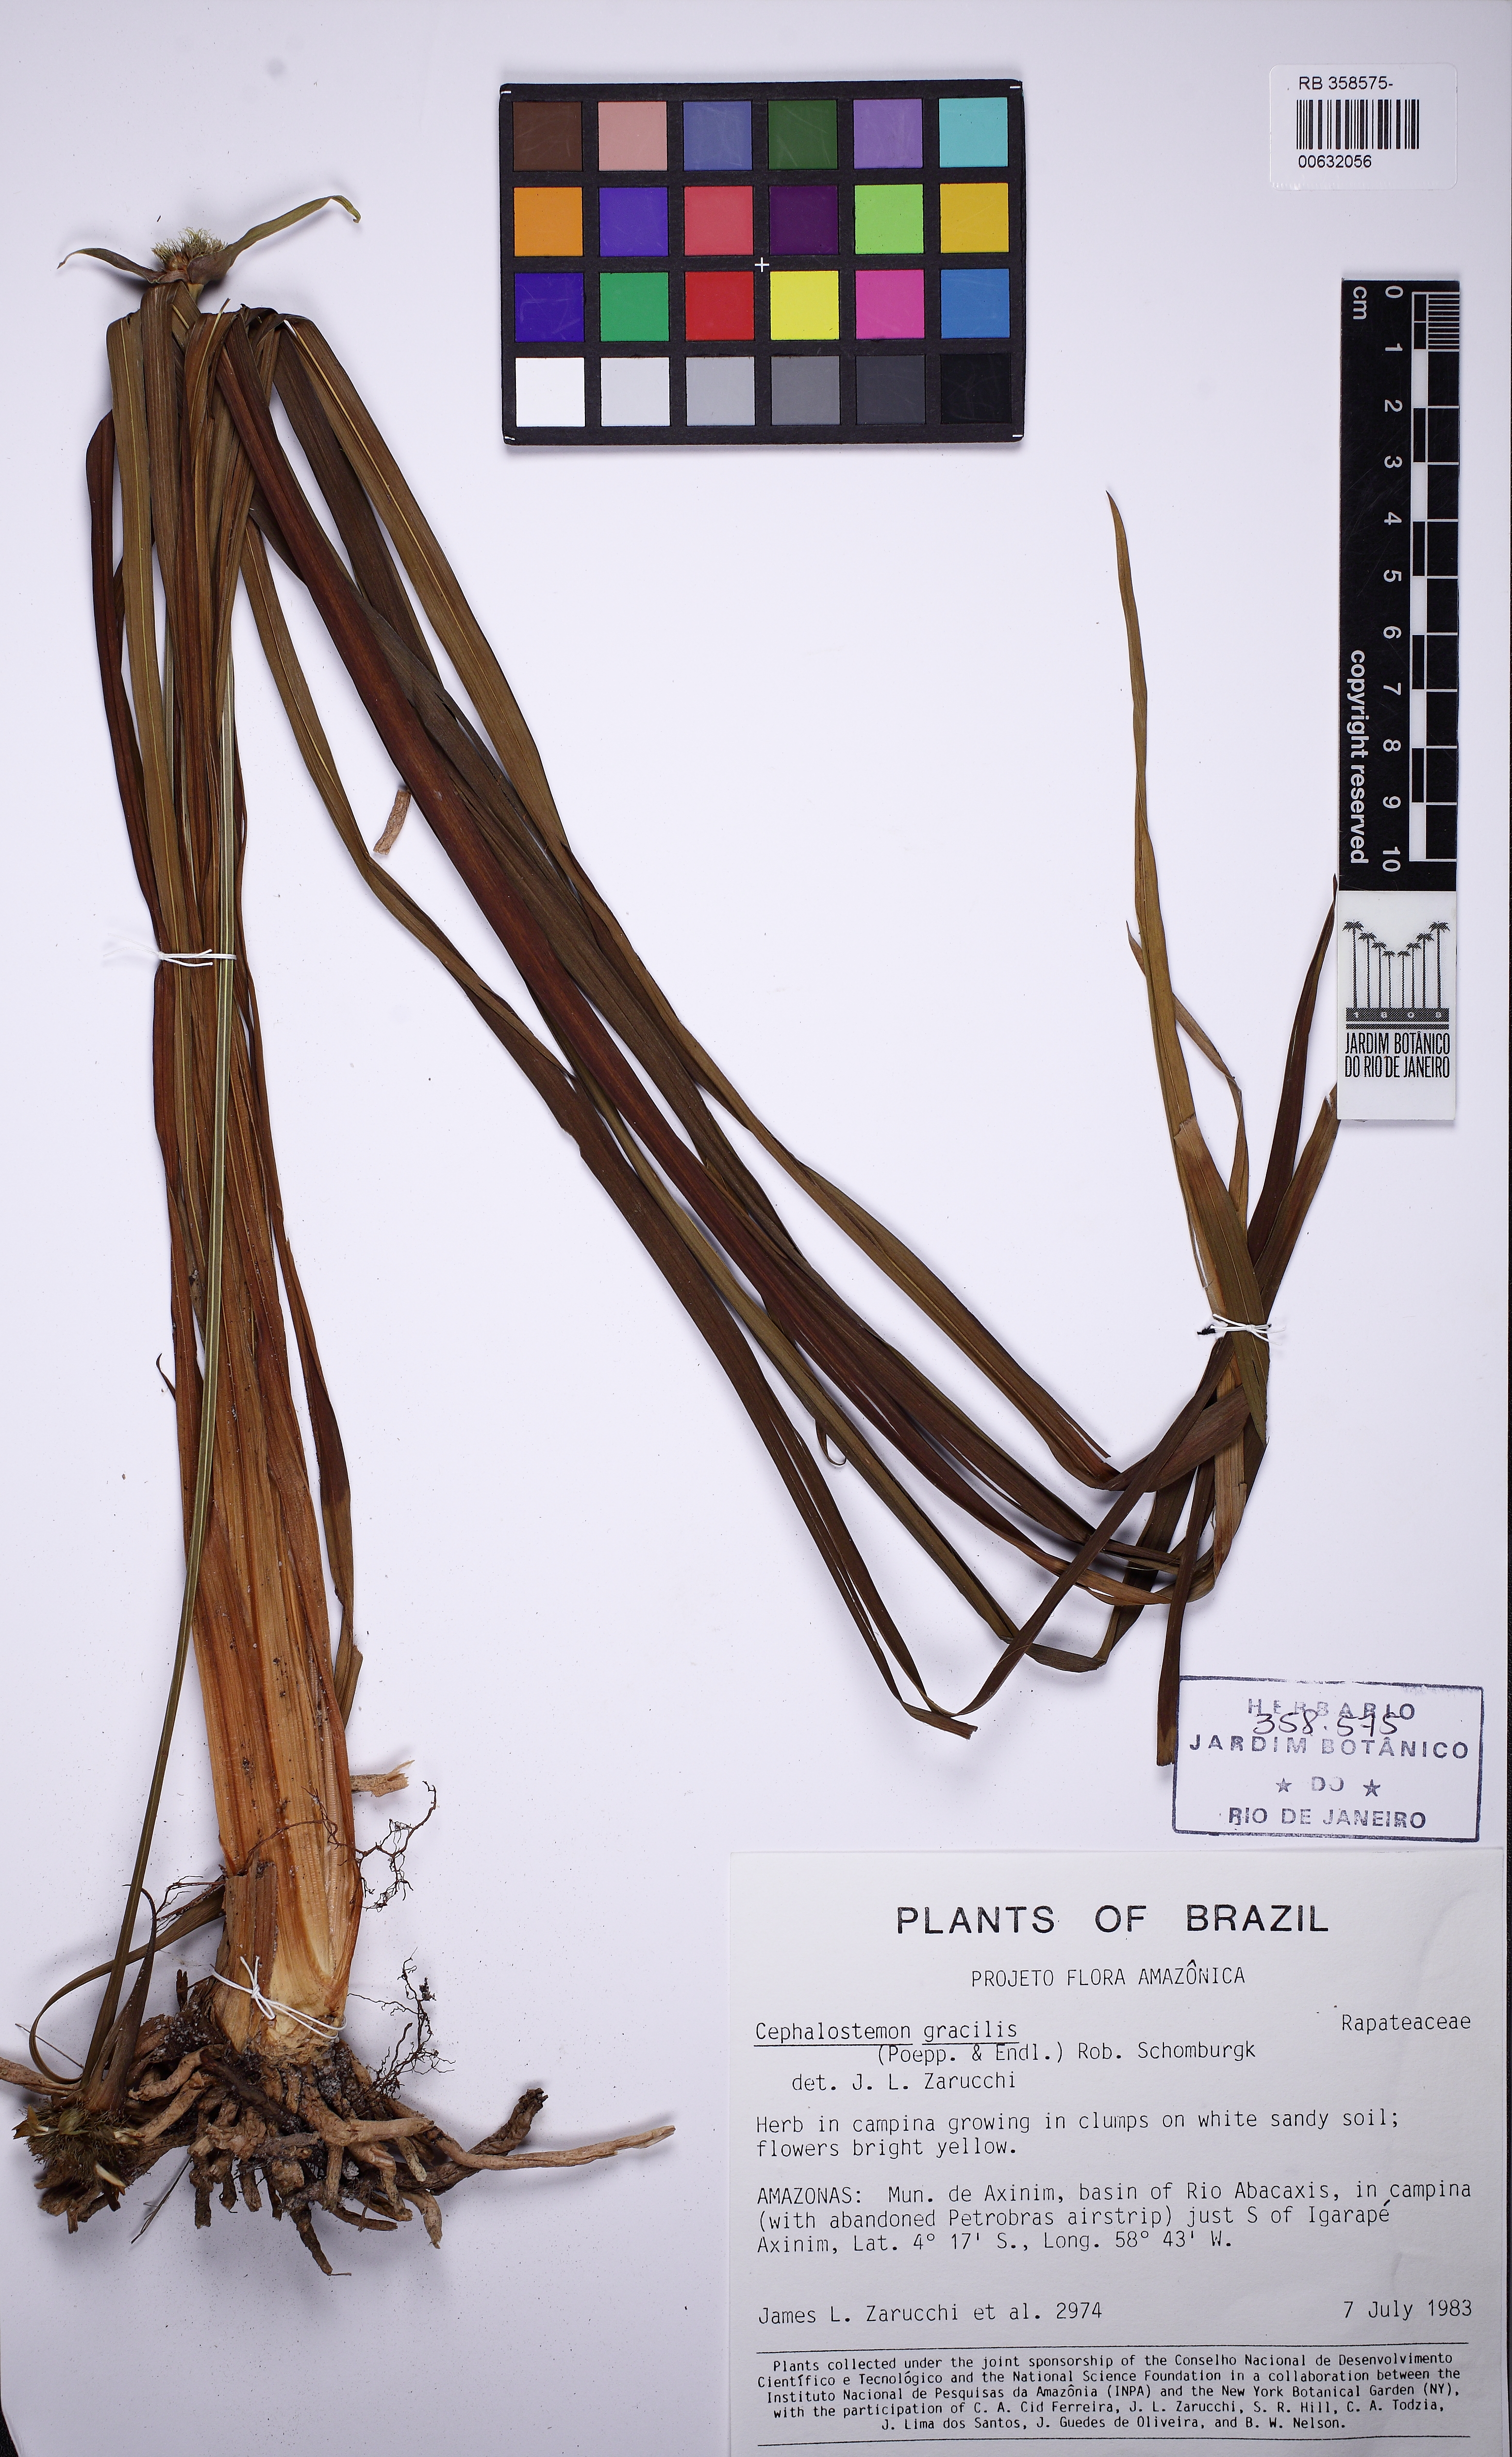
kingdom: Plantae
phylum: Tracheophyta
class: Liliopsida
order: Poales
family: Rapateaceae
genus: Cephalostemon
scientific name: Cephalostemon gracilis
